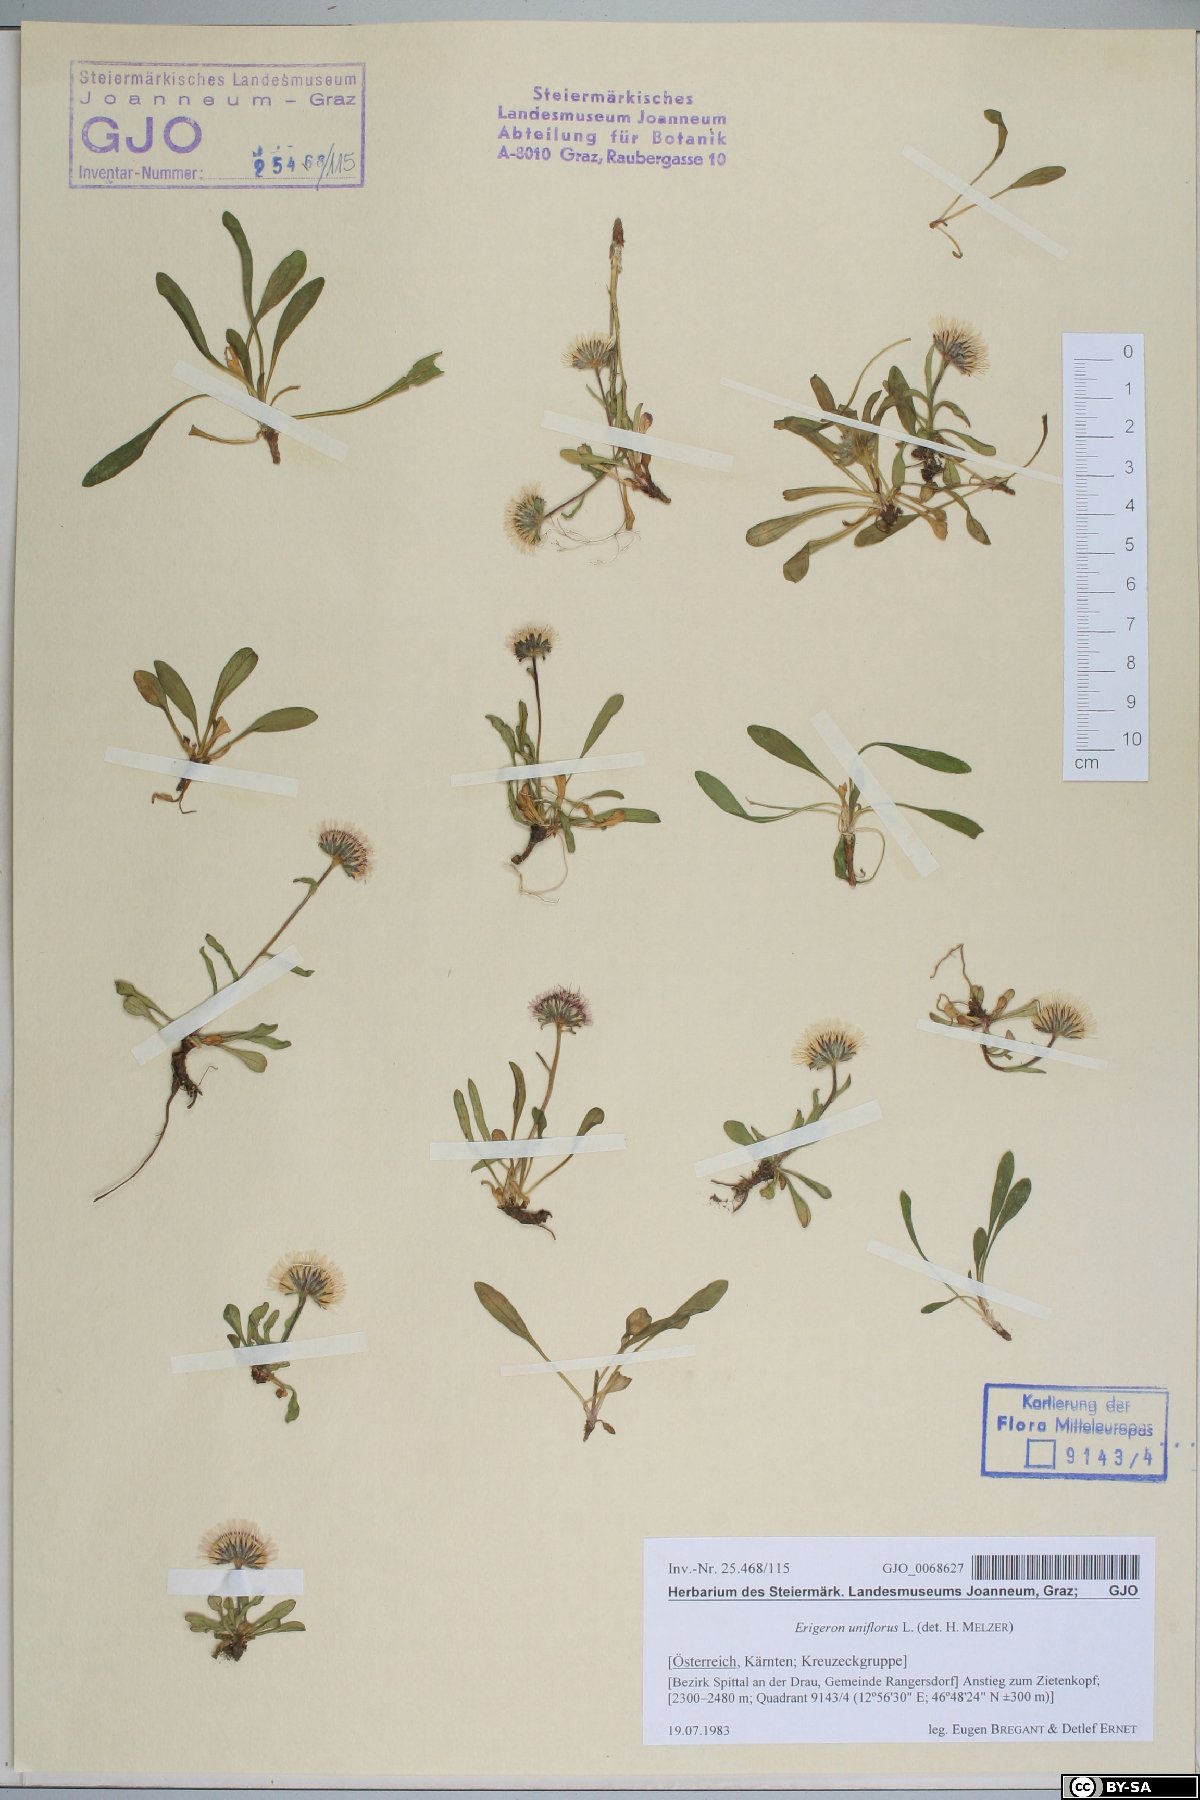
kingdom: Plantae
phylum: Tracheophyta
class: Magnoliopsida
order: Asterales
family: Asteraceae
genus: Erigeron
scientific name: Erigeron uniflorus
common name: Northern daisy
